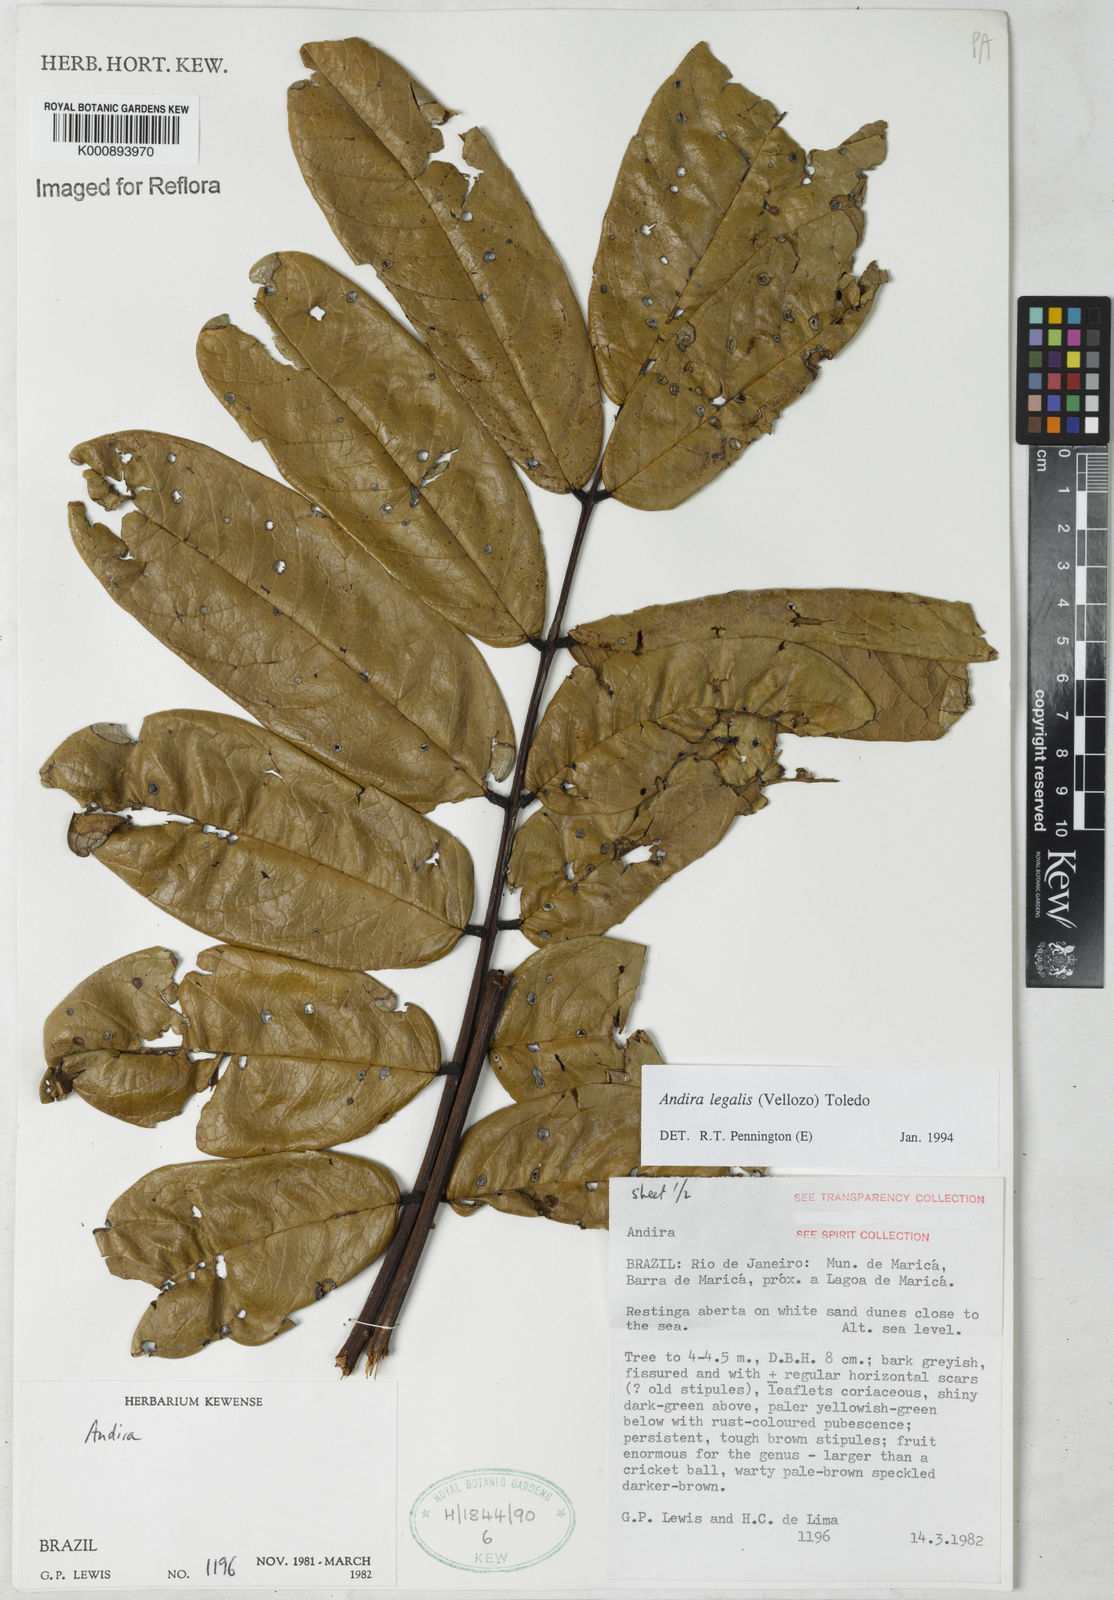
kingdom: Plantae
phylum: Tracheophyta
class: Magnoliopsida
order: Fabales
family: Fabaceae
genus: Andira
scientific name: Andira legalis
